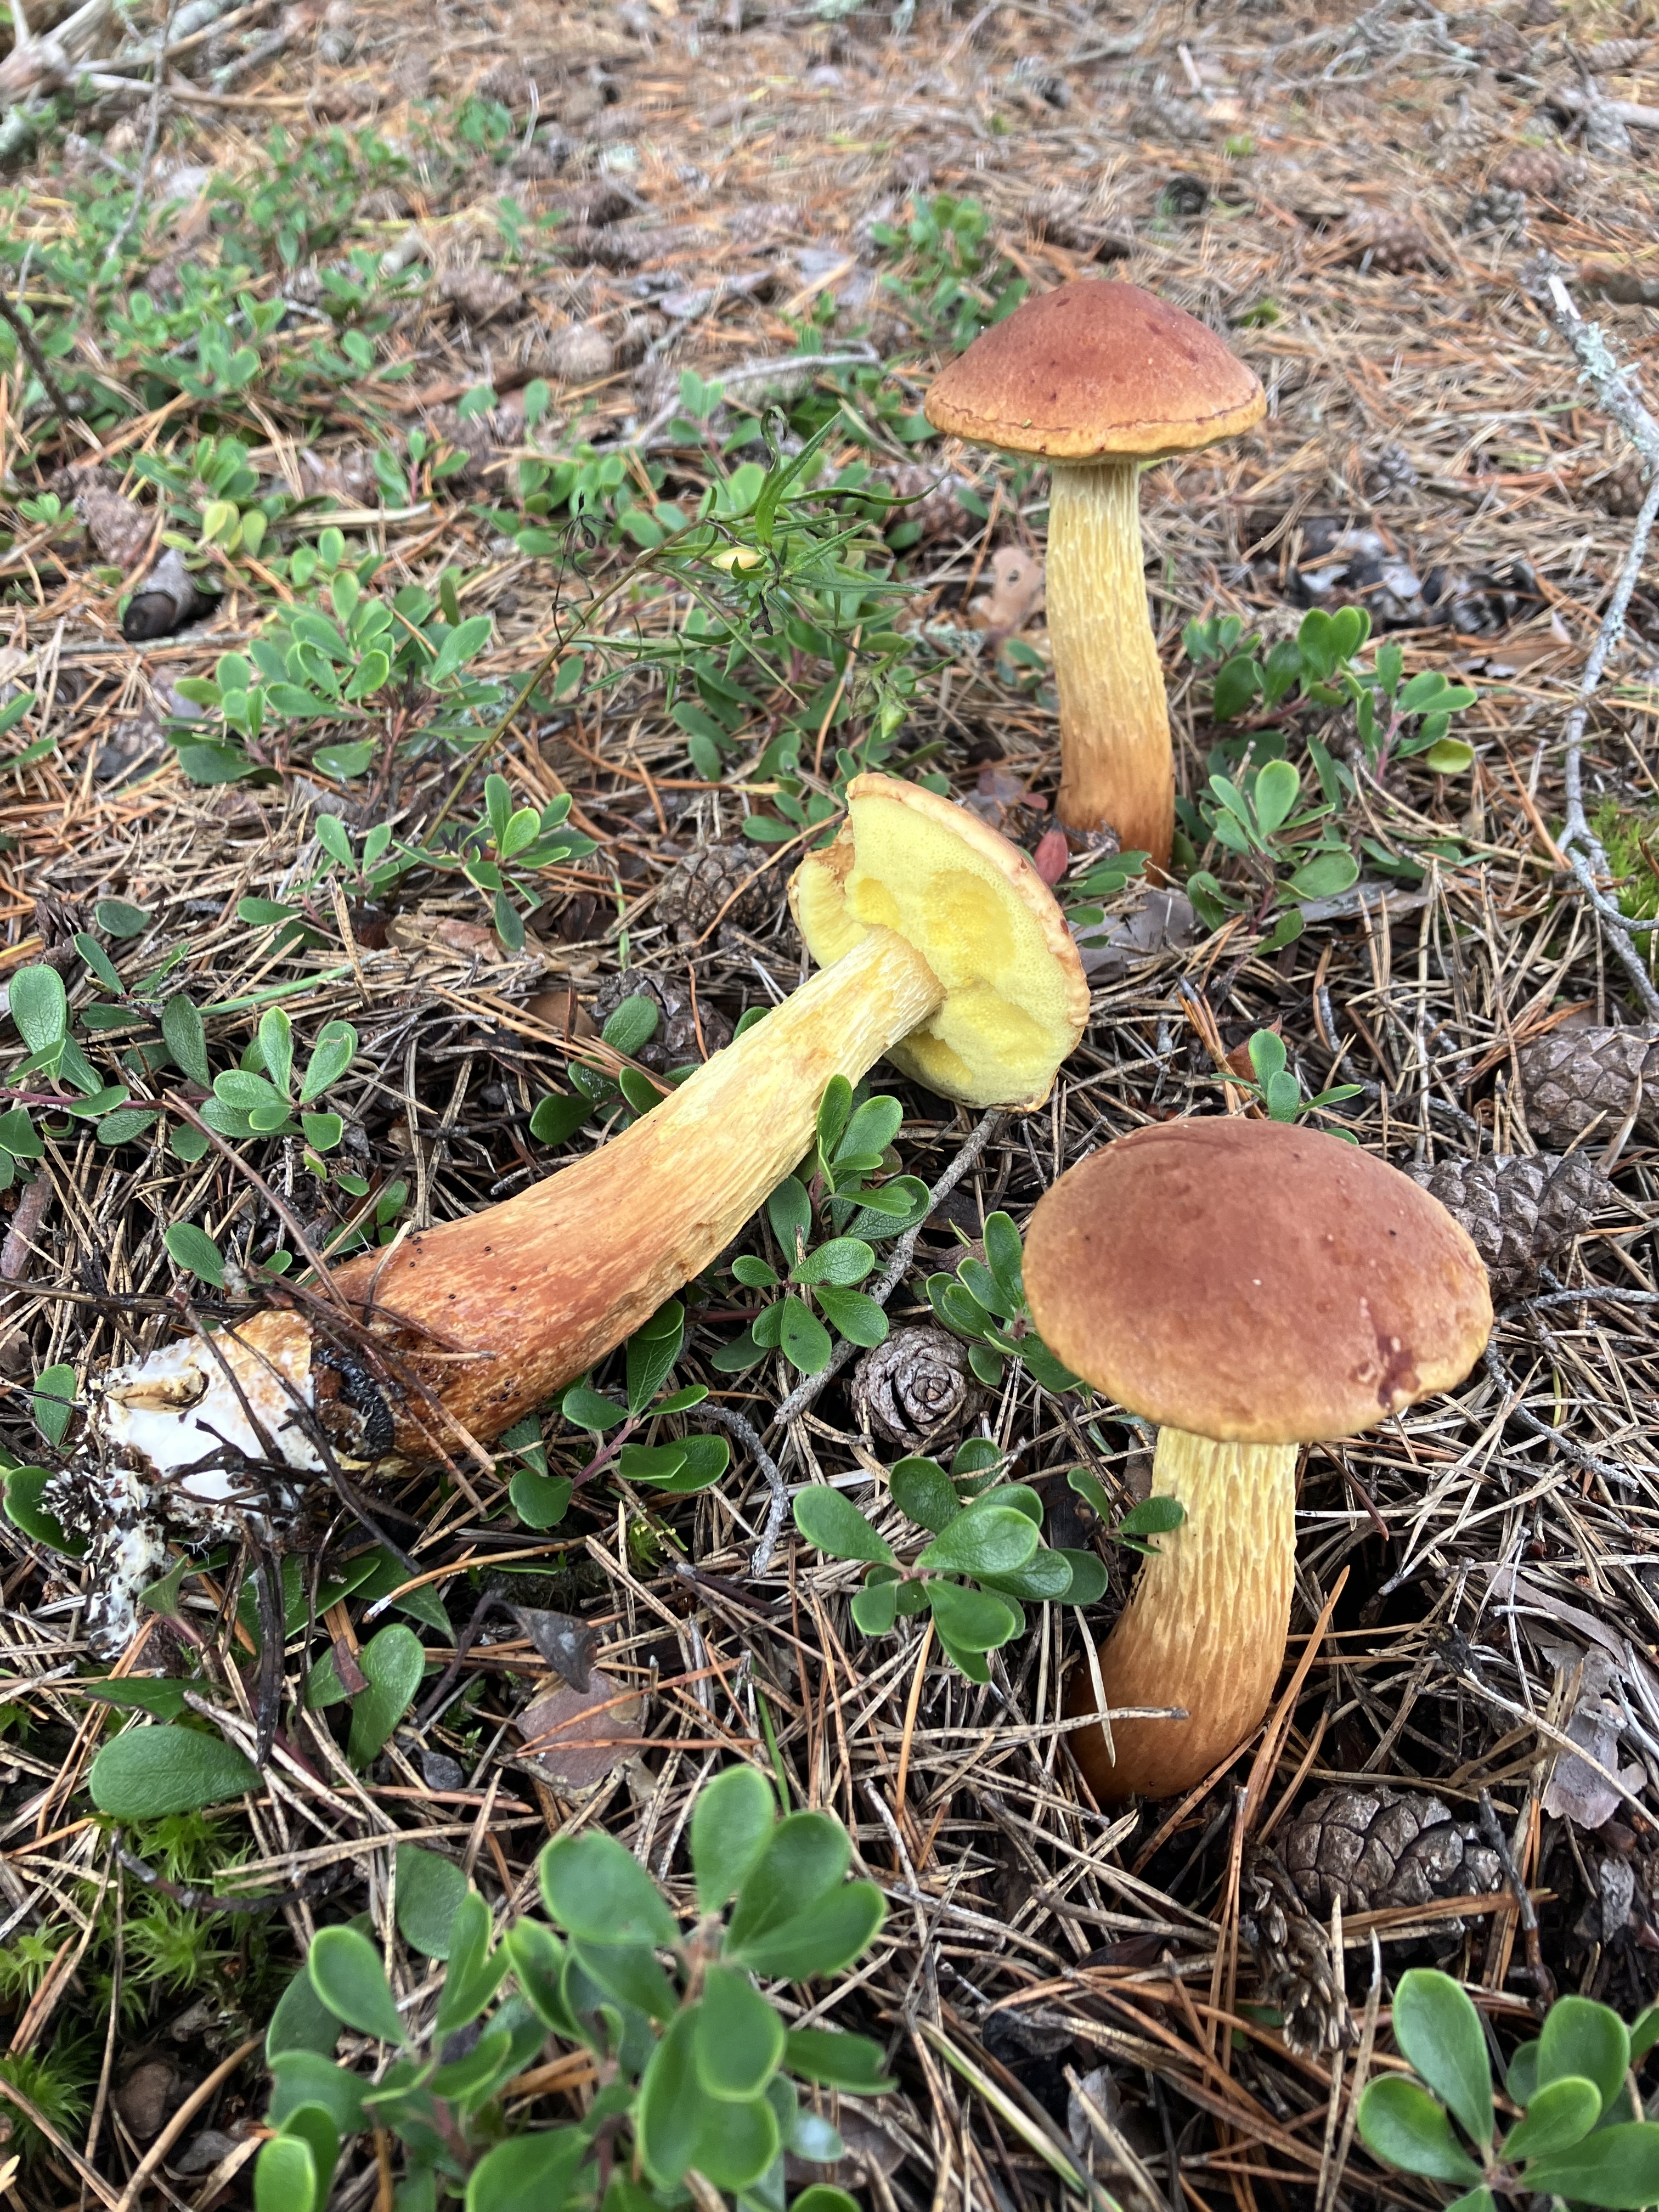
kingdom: Fungi
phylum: Basidiomycota
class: Agaricomycetes
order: Boletales
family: Boletaceae
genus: Aureoboletus
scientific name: Aureoboletus projectellus
